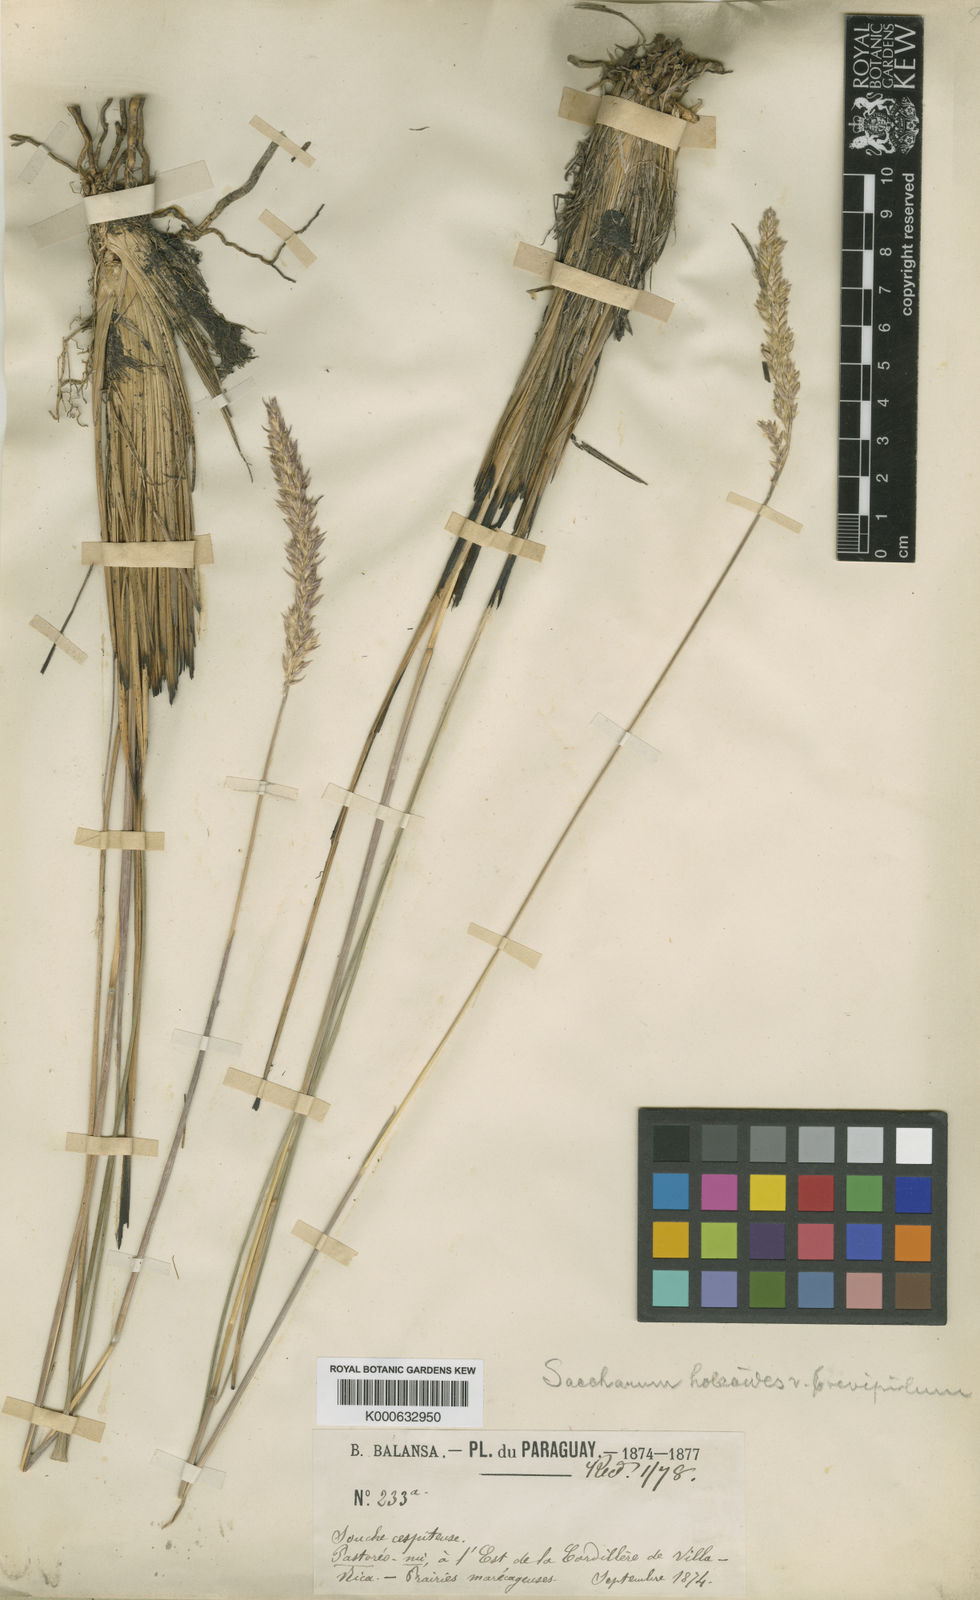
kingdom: Plantae
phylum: Tracheophyta
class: Liliopsida
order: Poales
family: Poaceae
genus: Eriochrysis
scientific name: Eriochrysis holcoides
